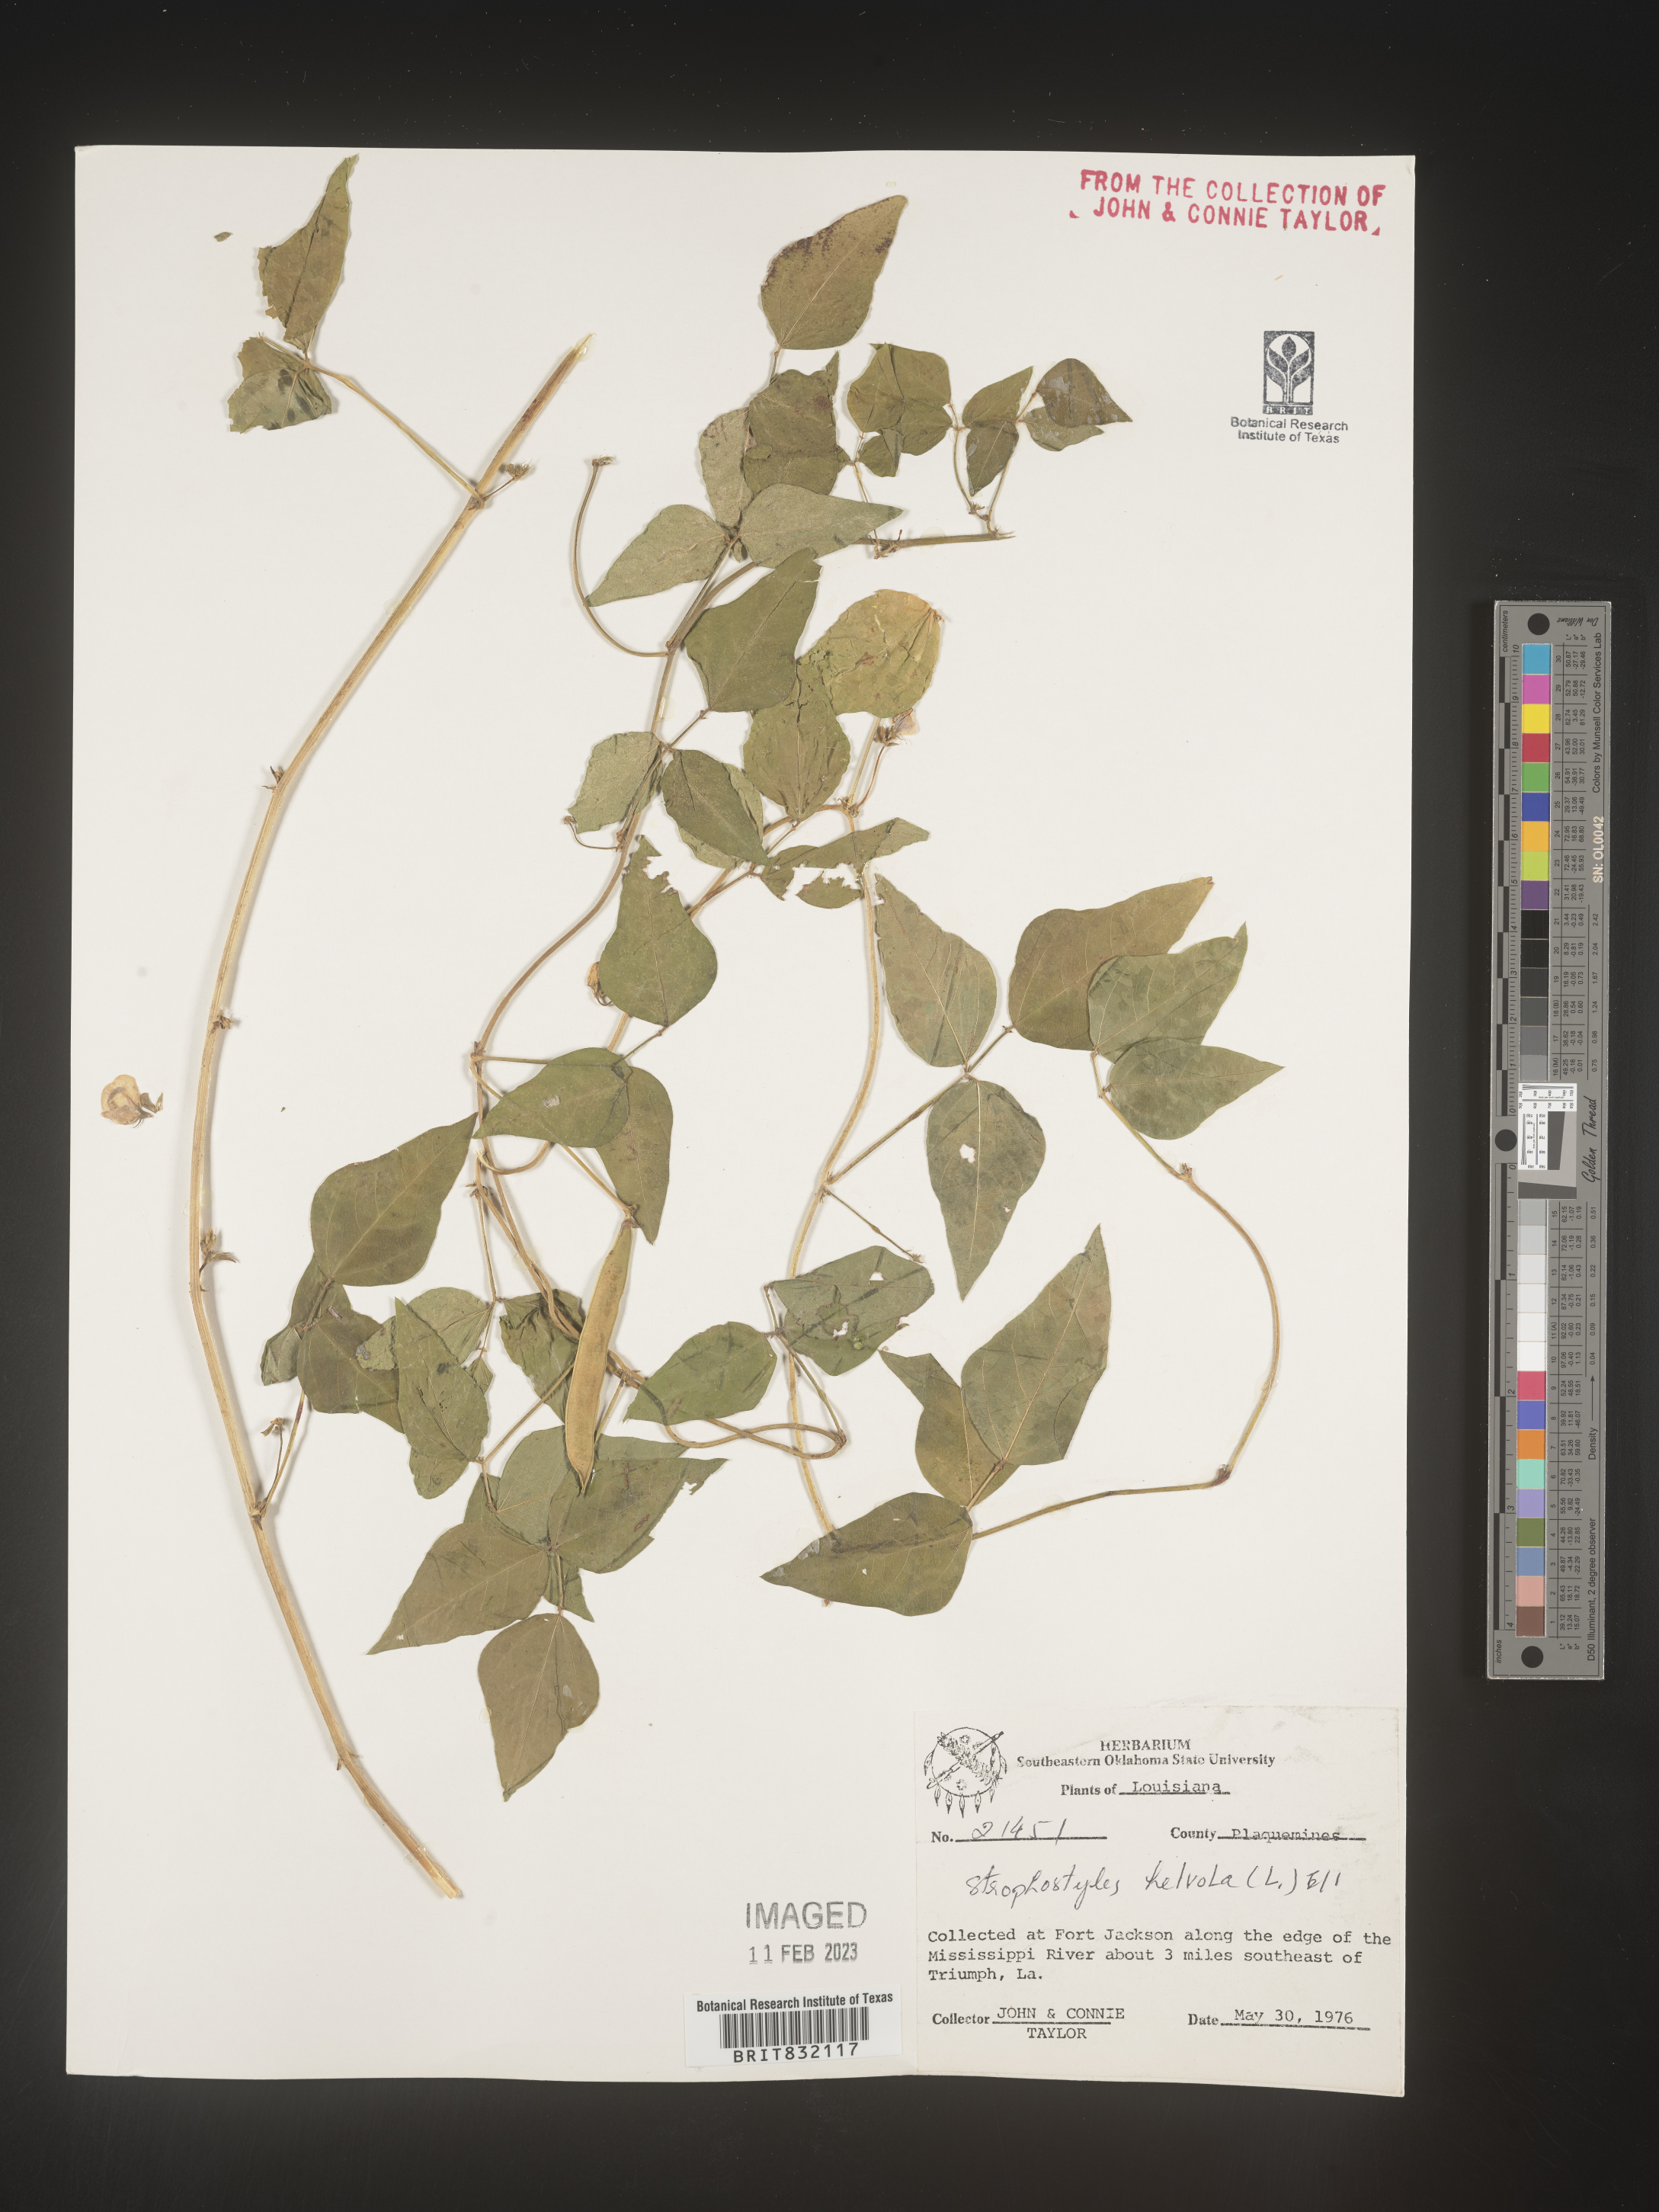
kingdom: Plantae
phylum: Tracheophyta
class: Magnoliopsida
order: Fabales
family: Fabaceae
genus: Strophostyles
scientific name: Strophostyles helvola
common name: Trailing wild bean
